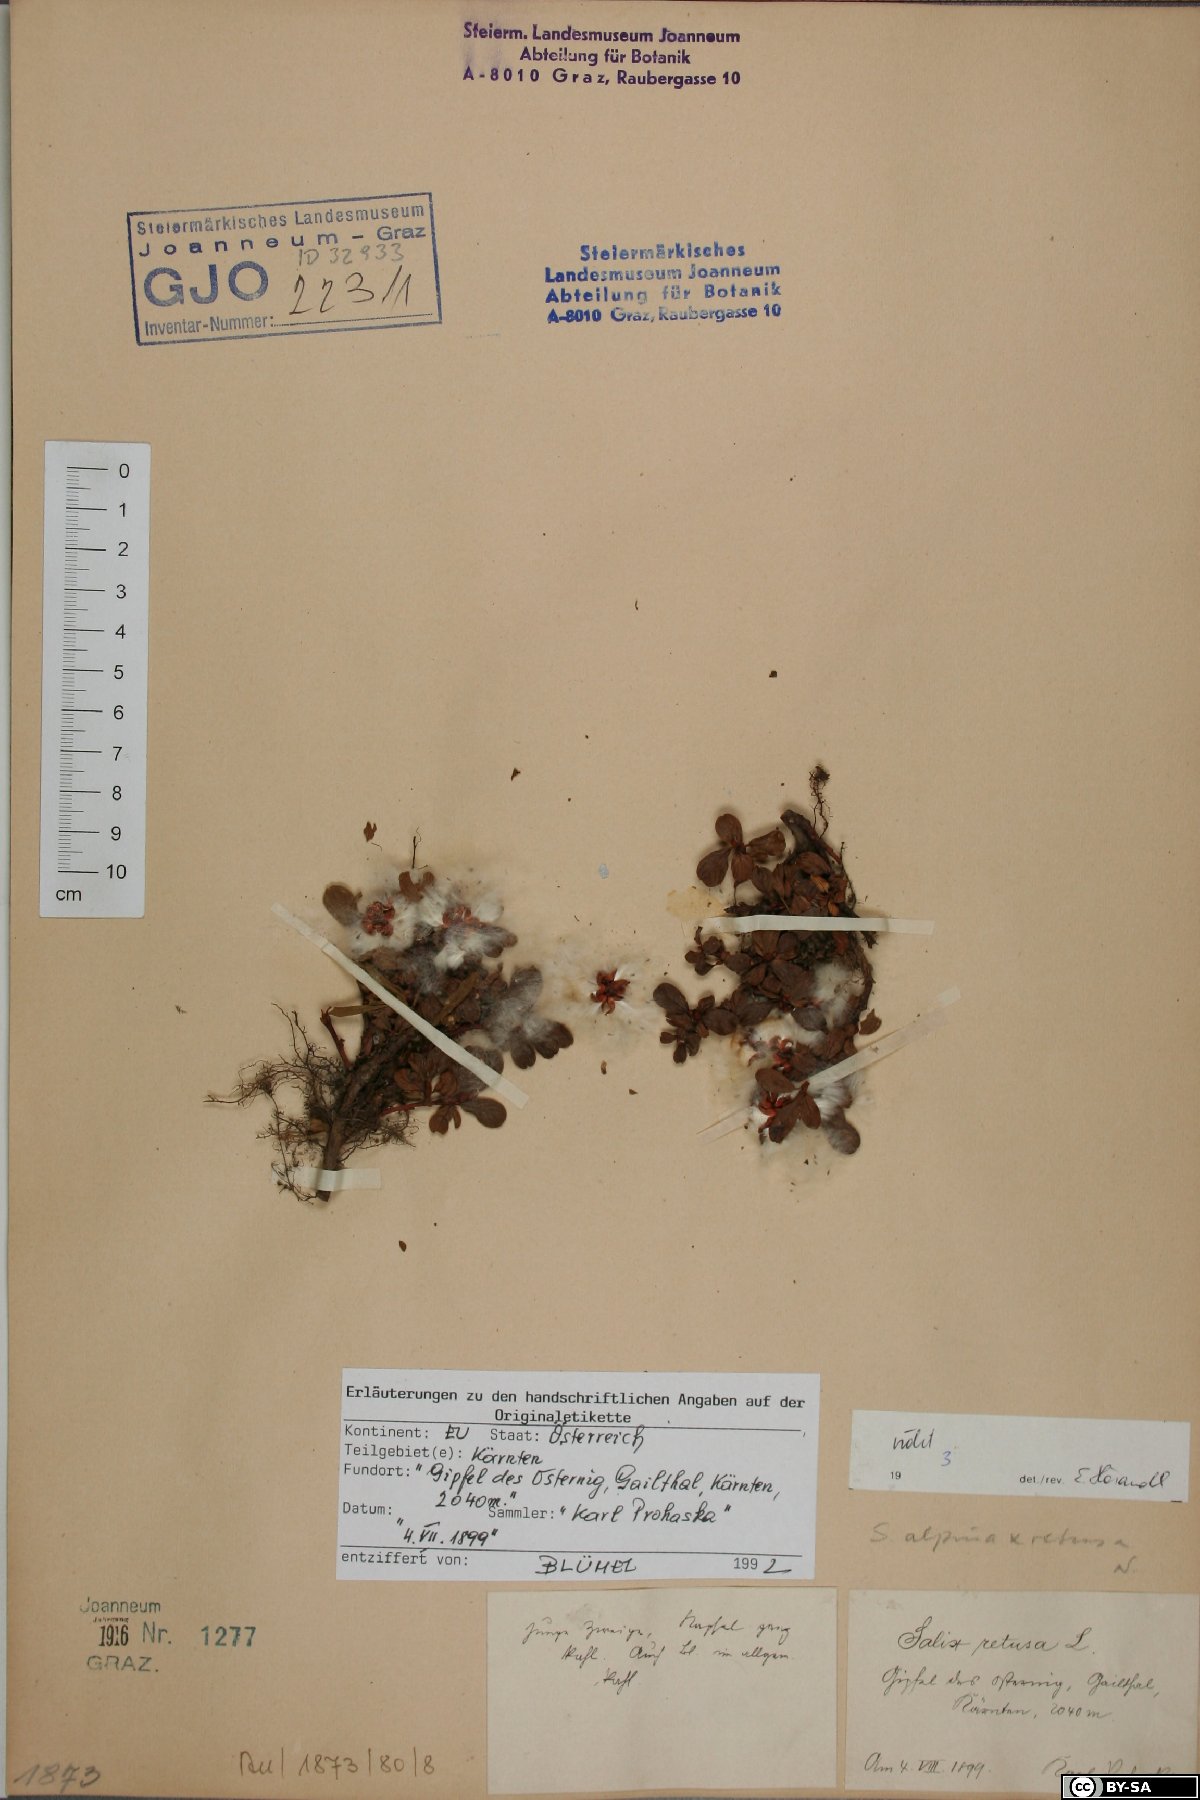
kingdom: Plantae
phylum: Tracheophyta
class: Magnoliopsida
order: Malpighiales
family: Salicaceae
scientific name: Salicaceae
